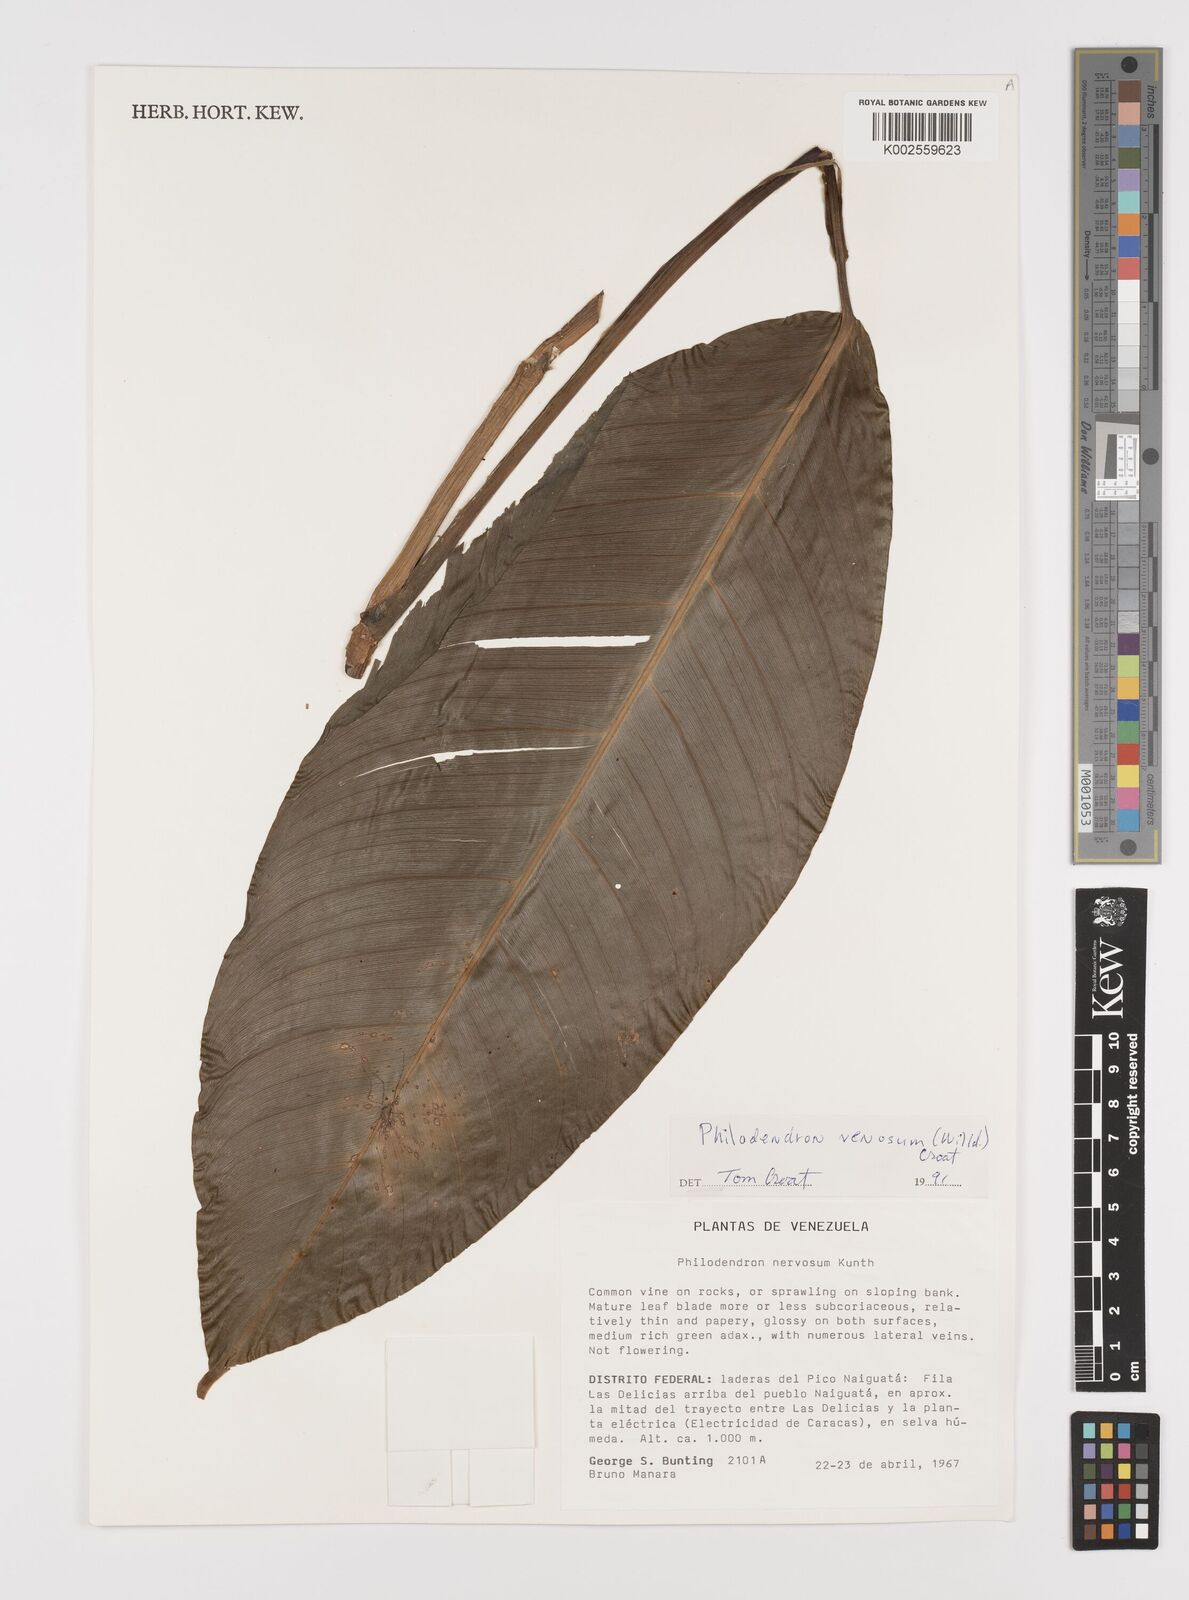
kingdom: Plantae
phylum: Tracheophyta
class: Liliopsida
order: Alismatales
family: Araceae
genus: Philodendron
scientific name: Philodendron venosum
